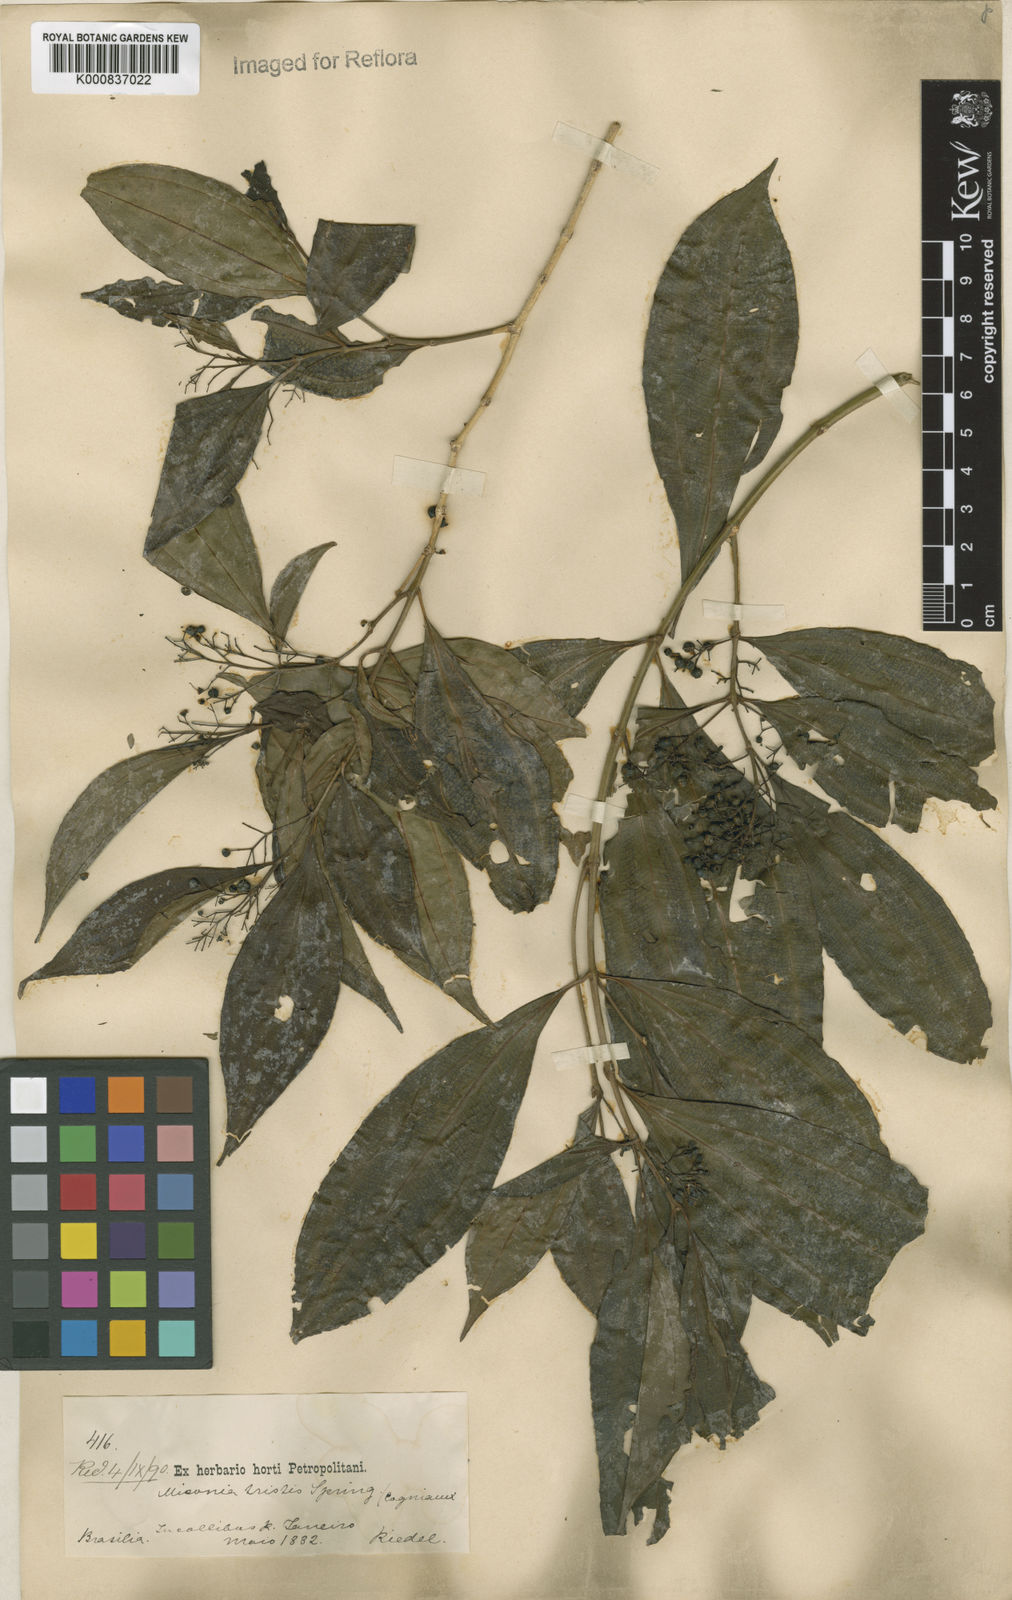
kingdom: Plantae
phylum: Tracheophyta
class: Magnoliopsida
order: Myrtales
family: Melastomataceae
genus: Miconia
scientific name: Miconia
